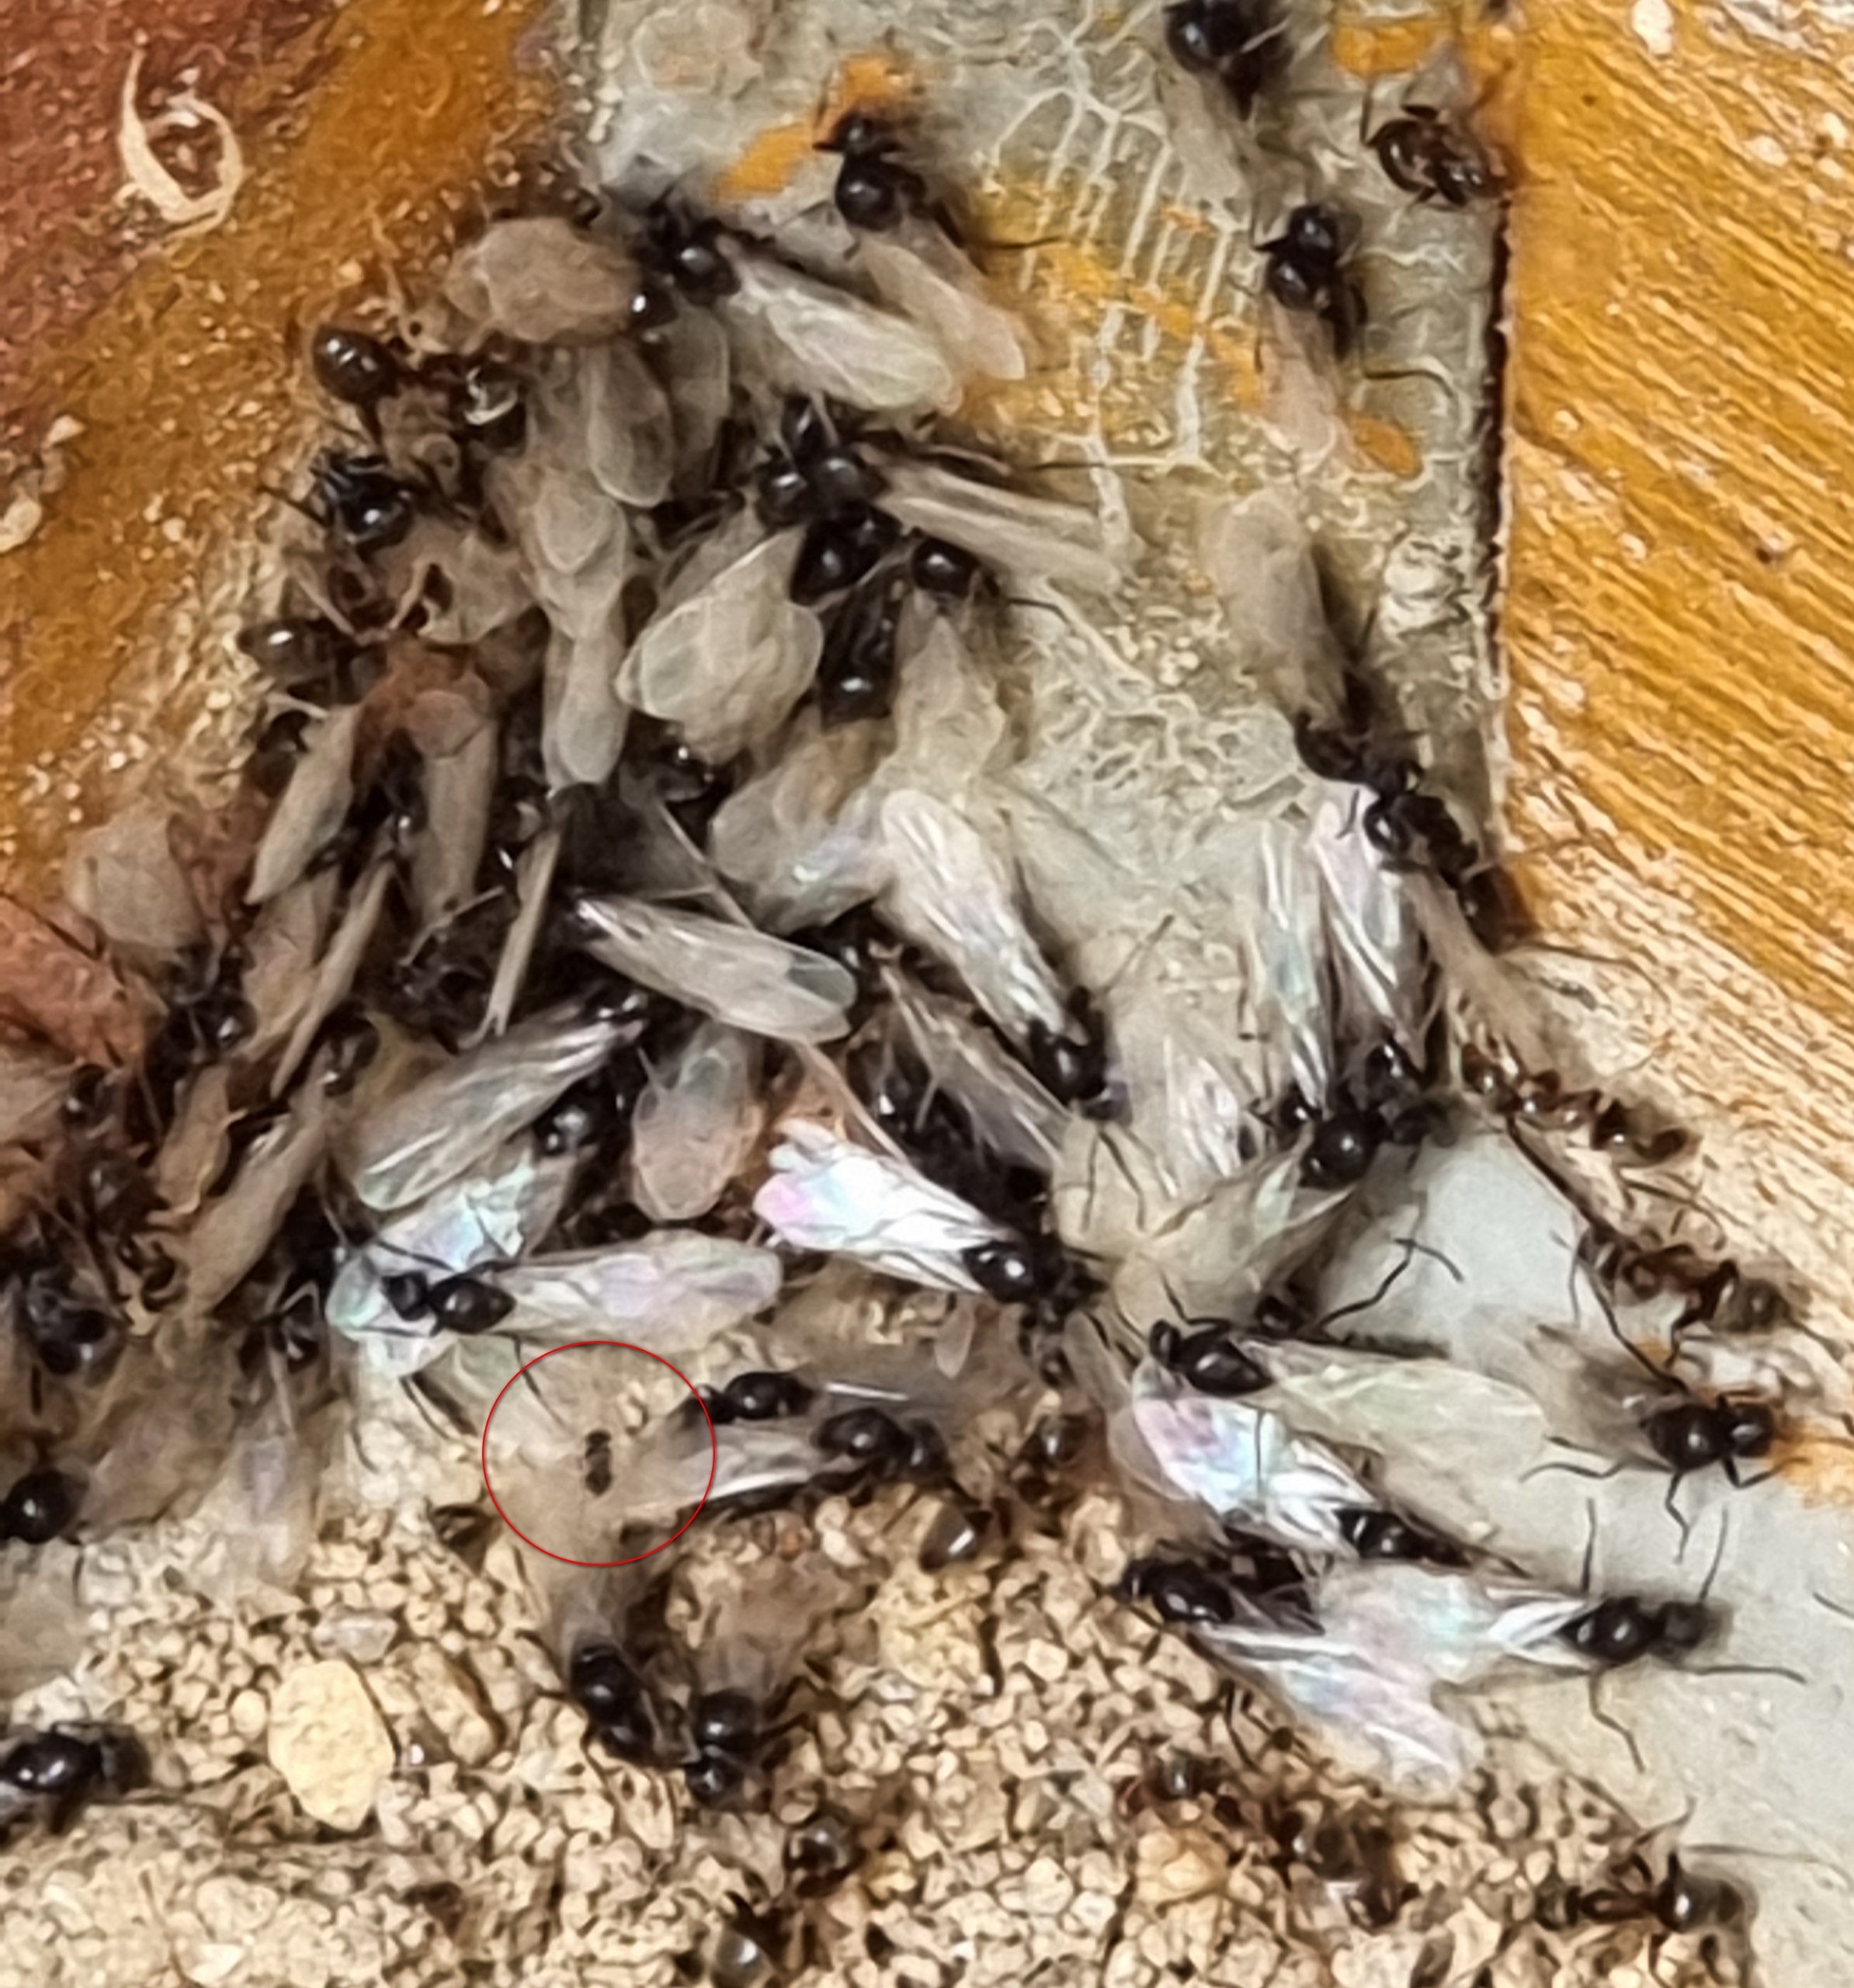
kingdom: Animalia
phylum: Arthropoda
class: Insecta
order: Diptera
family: Phoridae
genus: Pseudacteon
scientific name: Pseudacteon formicarum
